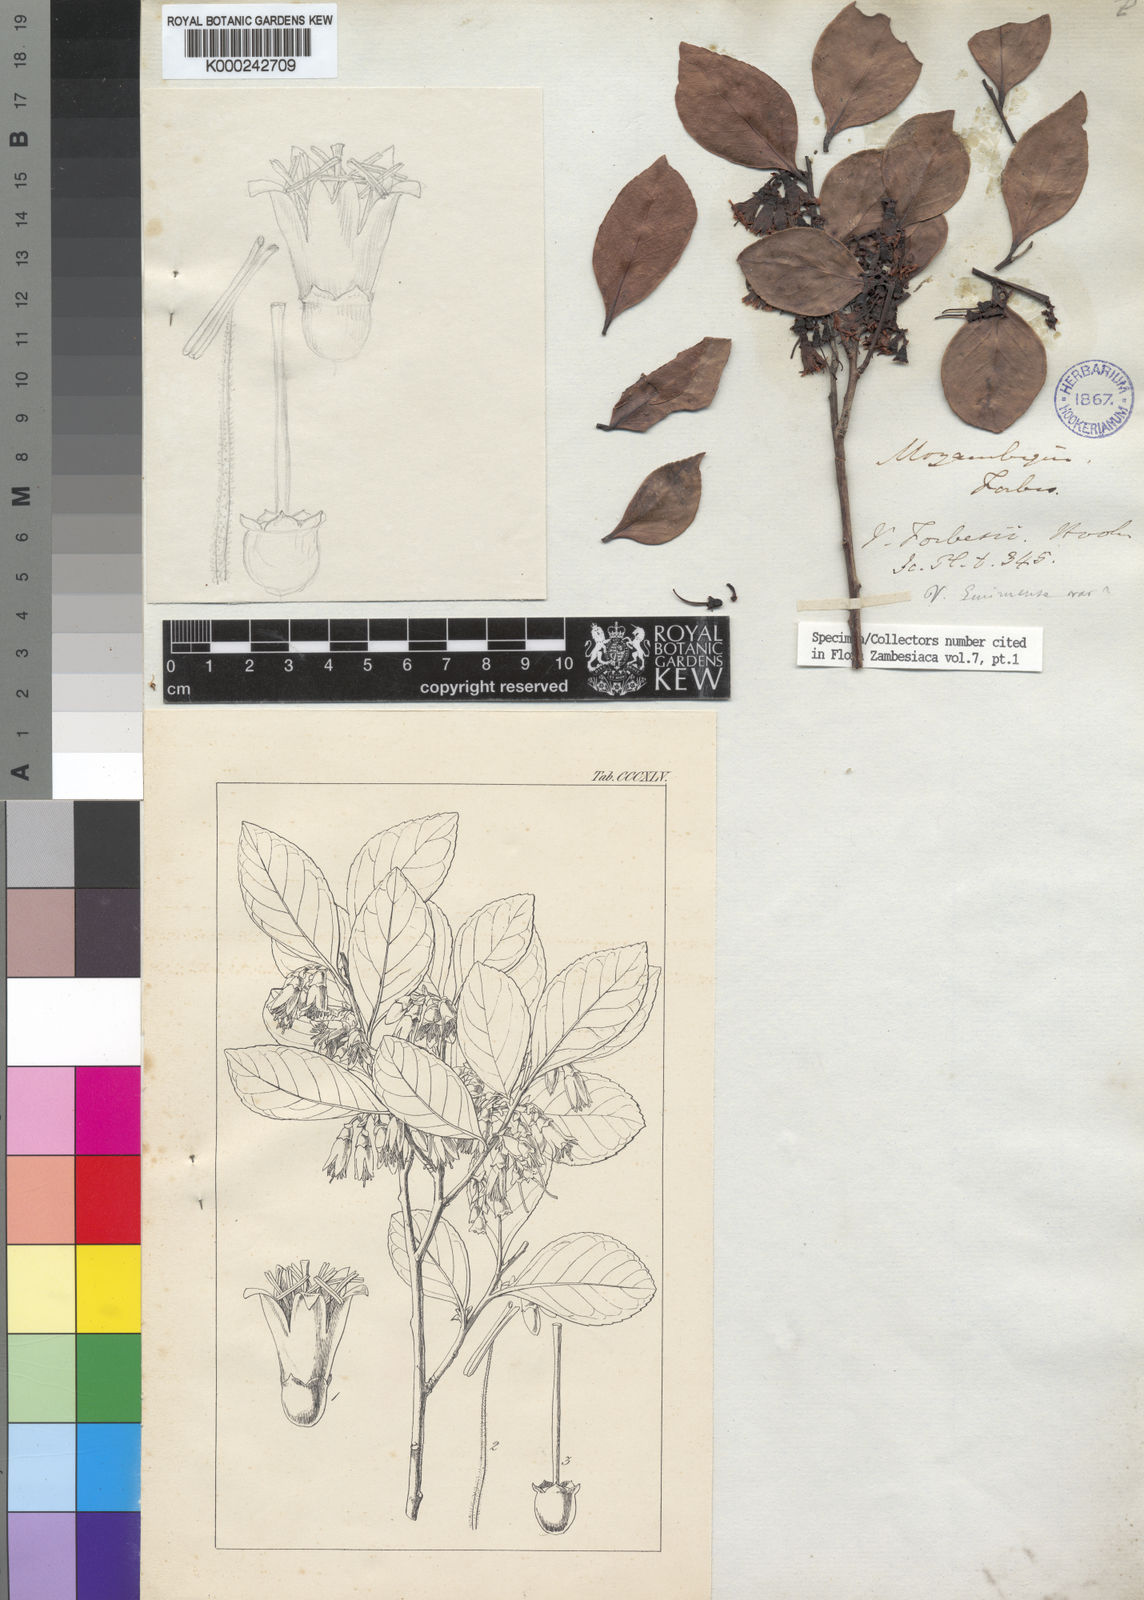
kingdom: Plantae
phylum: Tracheophyta
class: Magnoliopsida
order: Ericales
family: Ericaceae
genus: Vaccinium
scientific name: Vaccinium madagascariense
